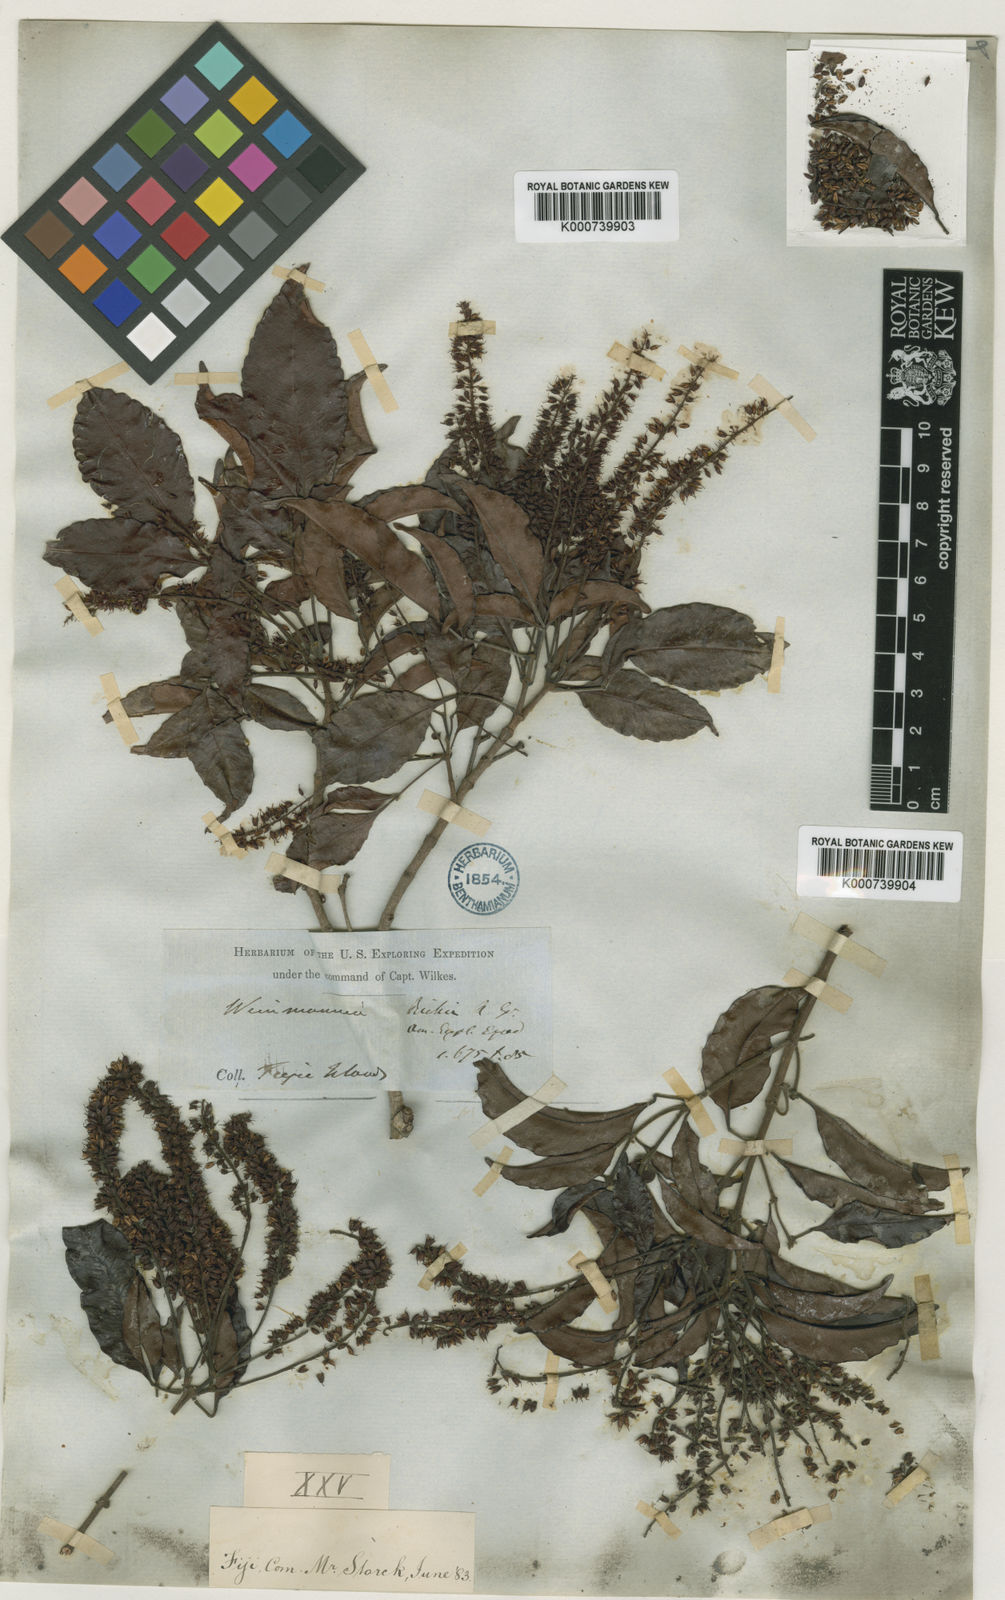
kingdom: Plantae
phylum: Tracheophyta
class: Magnoliopsida
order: Oxalidales
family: Cunoniaceae
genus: Pterophylla
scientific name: Pterophylla richii
